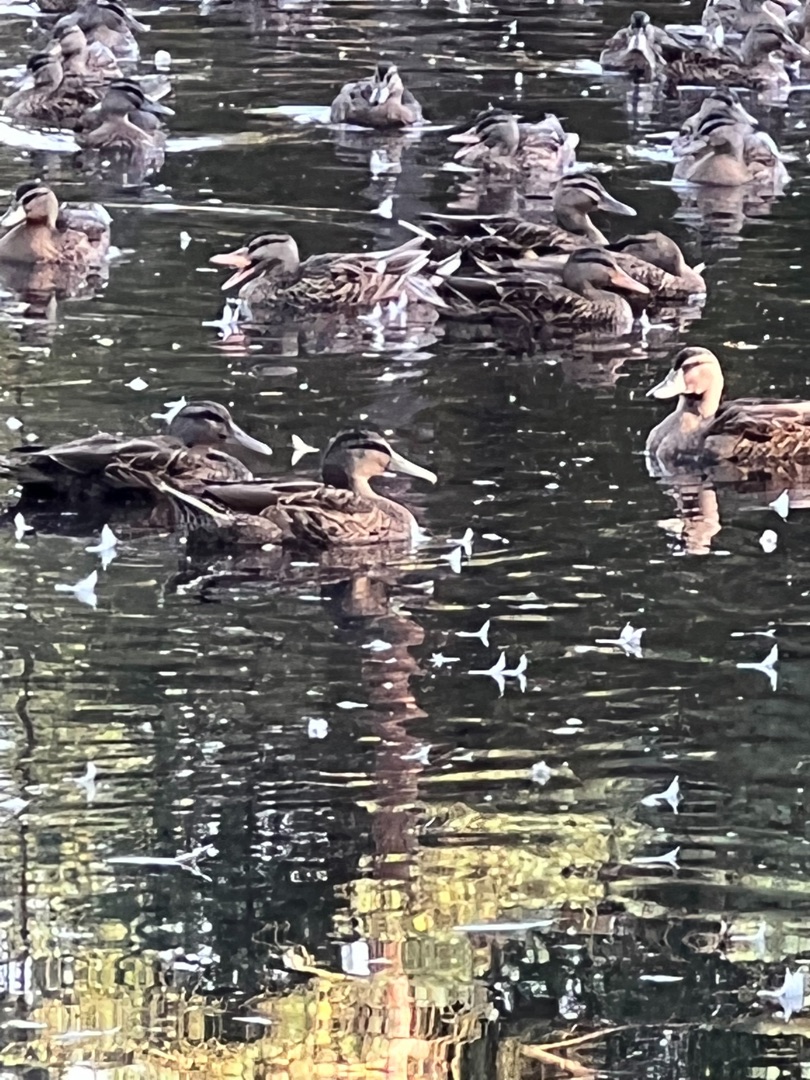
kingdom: Animalia
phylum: Chordata
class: Aves
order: Anseriformes
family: Anatidae
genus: Anas
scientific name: Anas platyrhynchos
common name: Gråand
